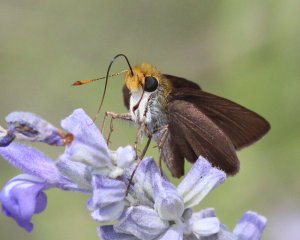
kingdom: Animalia
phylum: Arthropoda
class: Insecta
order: Lepidoptera
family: Hesperiidae
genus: Euphyes
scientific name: Euphyes vestris
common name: Dun Skipper
